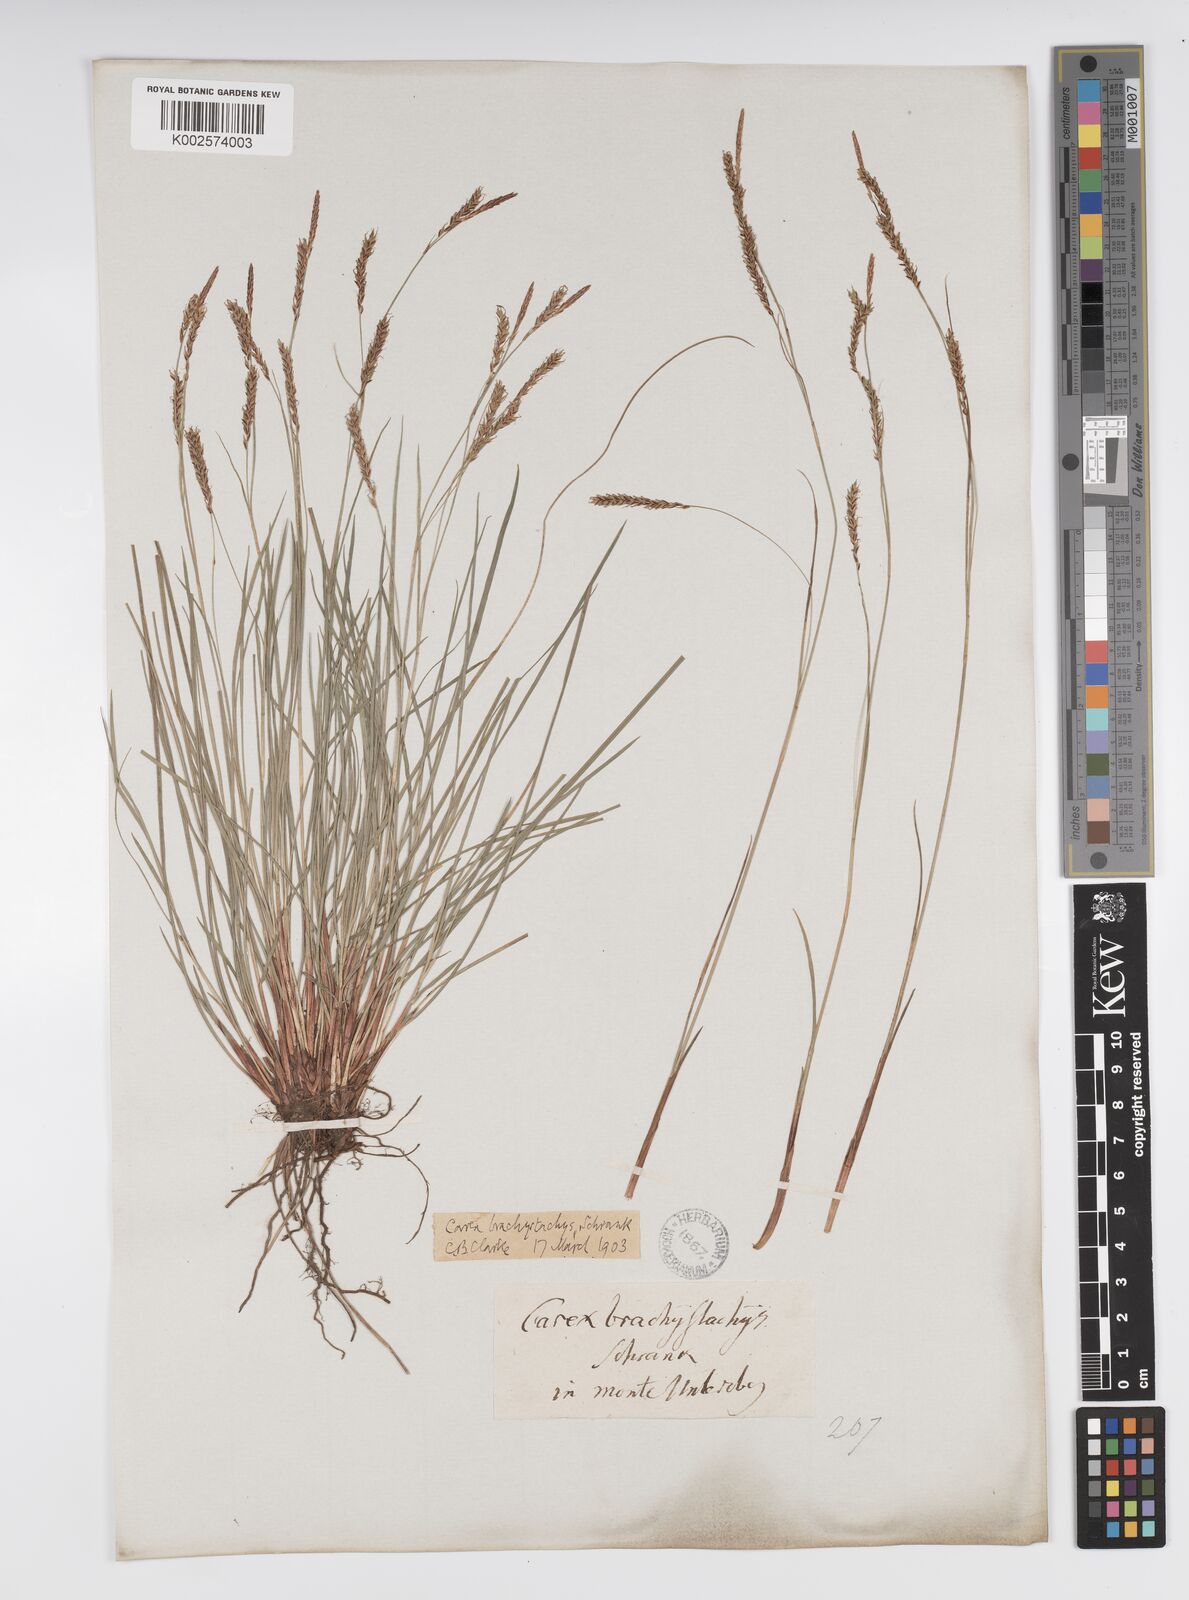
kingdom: Plantae
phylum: Tracheophyta
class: Liliopsida
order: Poales
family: Cyperaceae
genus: Carex
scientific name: Carex brachystachys
